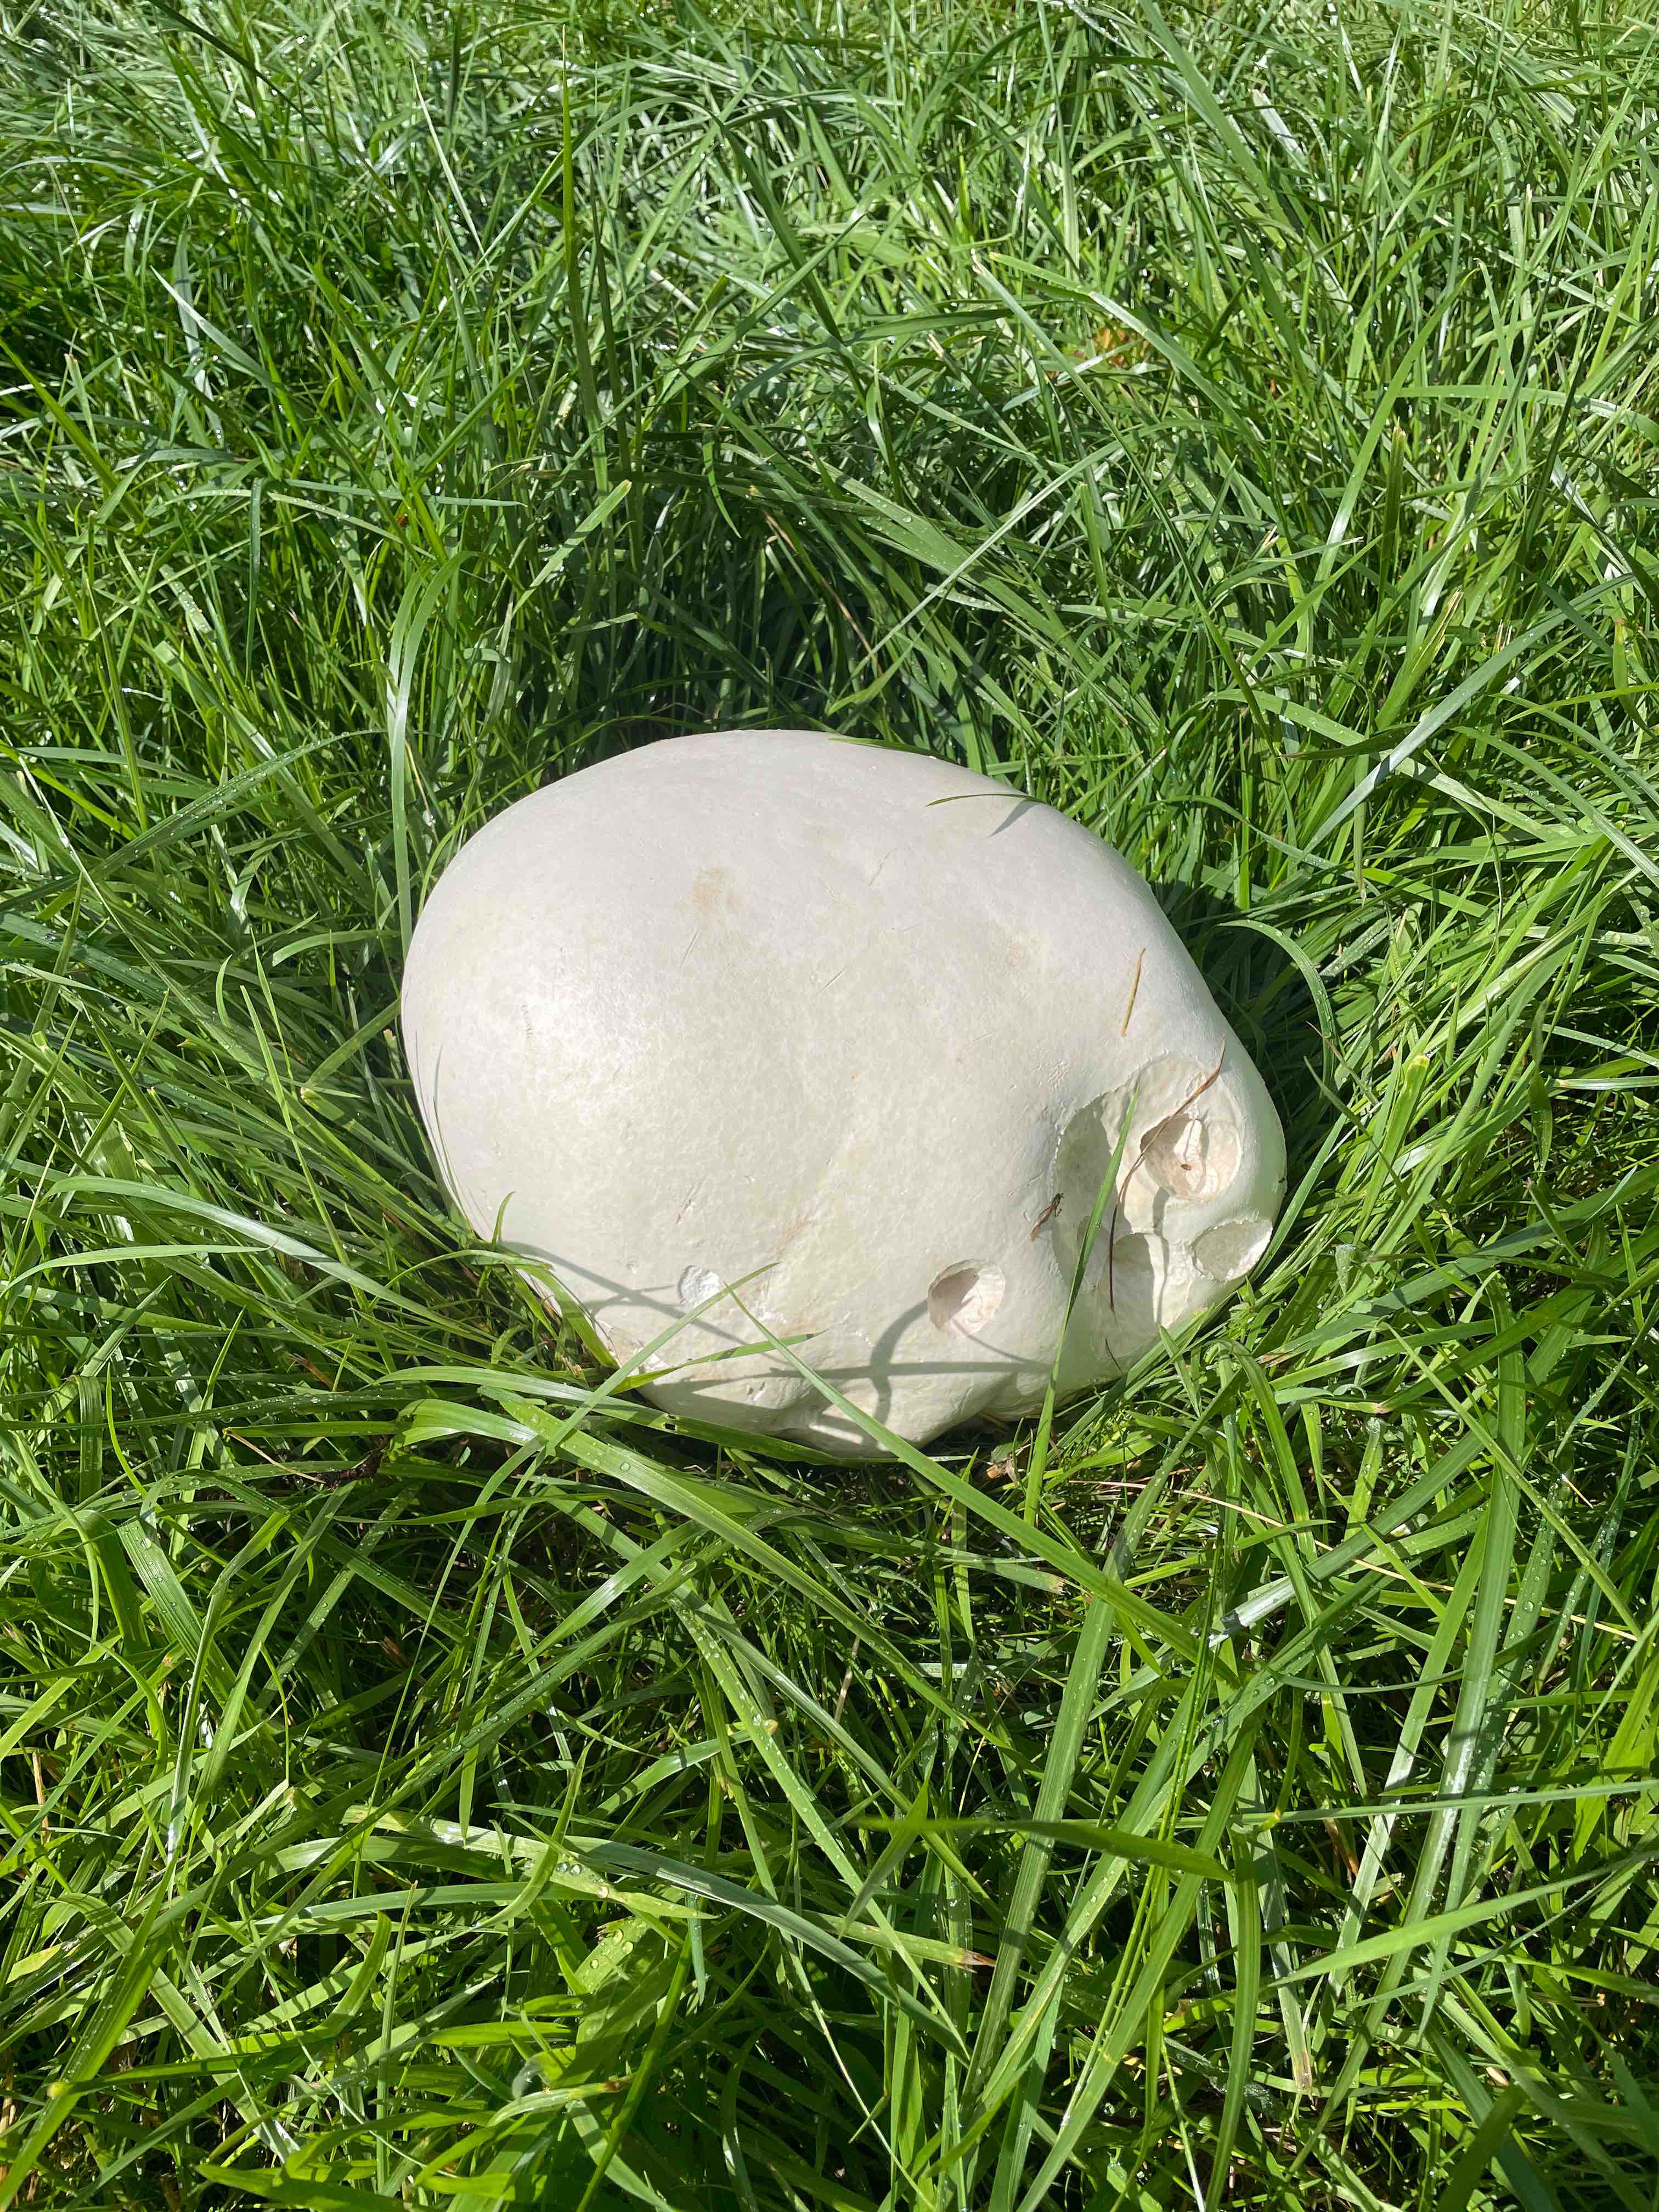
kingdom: Fungi
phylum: Basidiomycota
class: Agaricomycetes
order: Agaricales
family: Lycoperdaceae
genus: Calvatia
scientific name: Calvatia gigantea
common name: kæmpestøvbold
